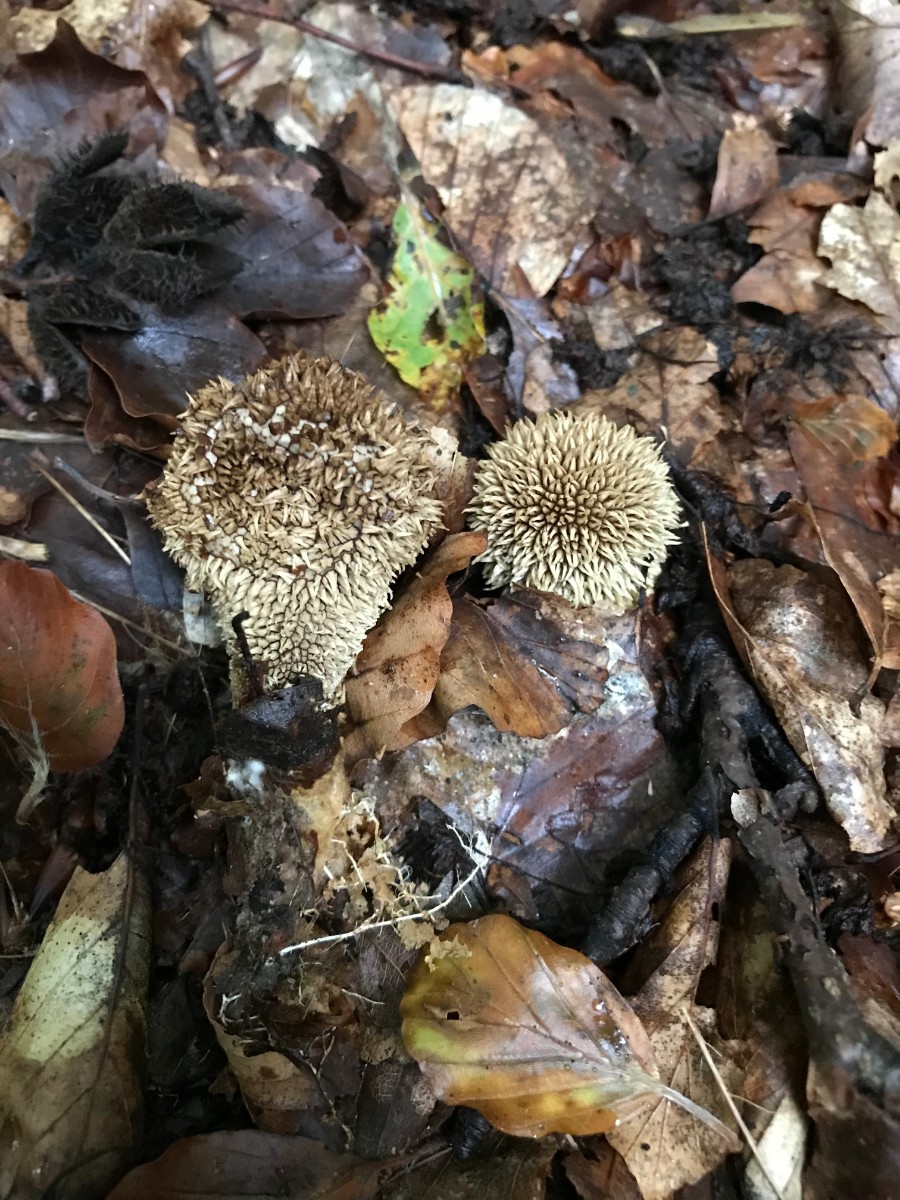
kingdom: Fungi
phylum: Basidiomycota
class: Agaricomycetes
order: Agaricales
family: Lycoperdaceae
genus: Lycoperdon
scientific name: Lycoperdon echinatum
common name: pindsvine-støvbold
